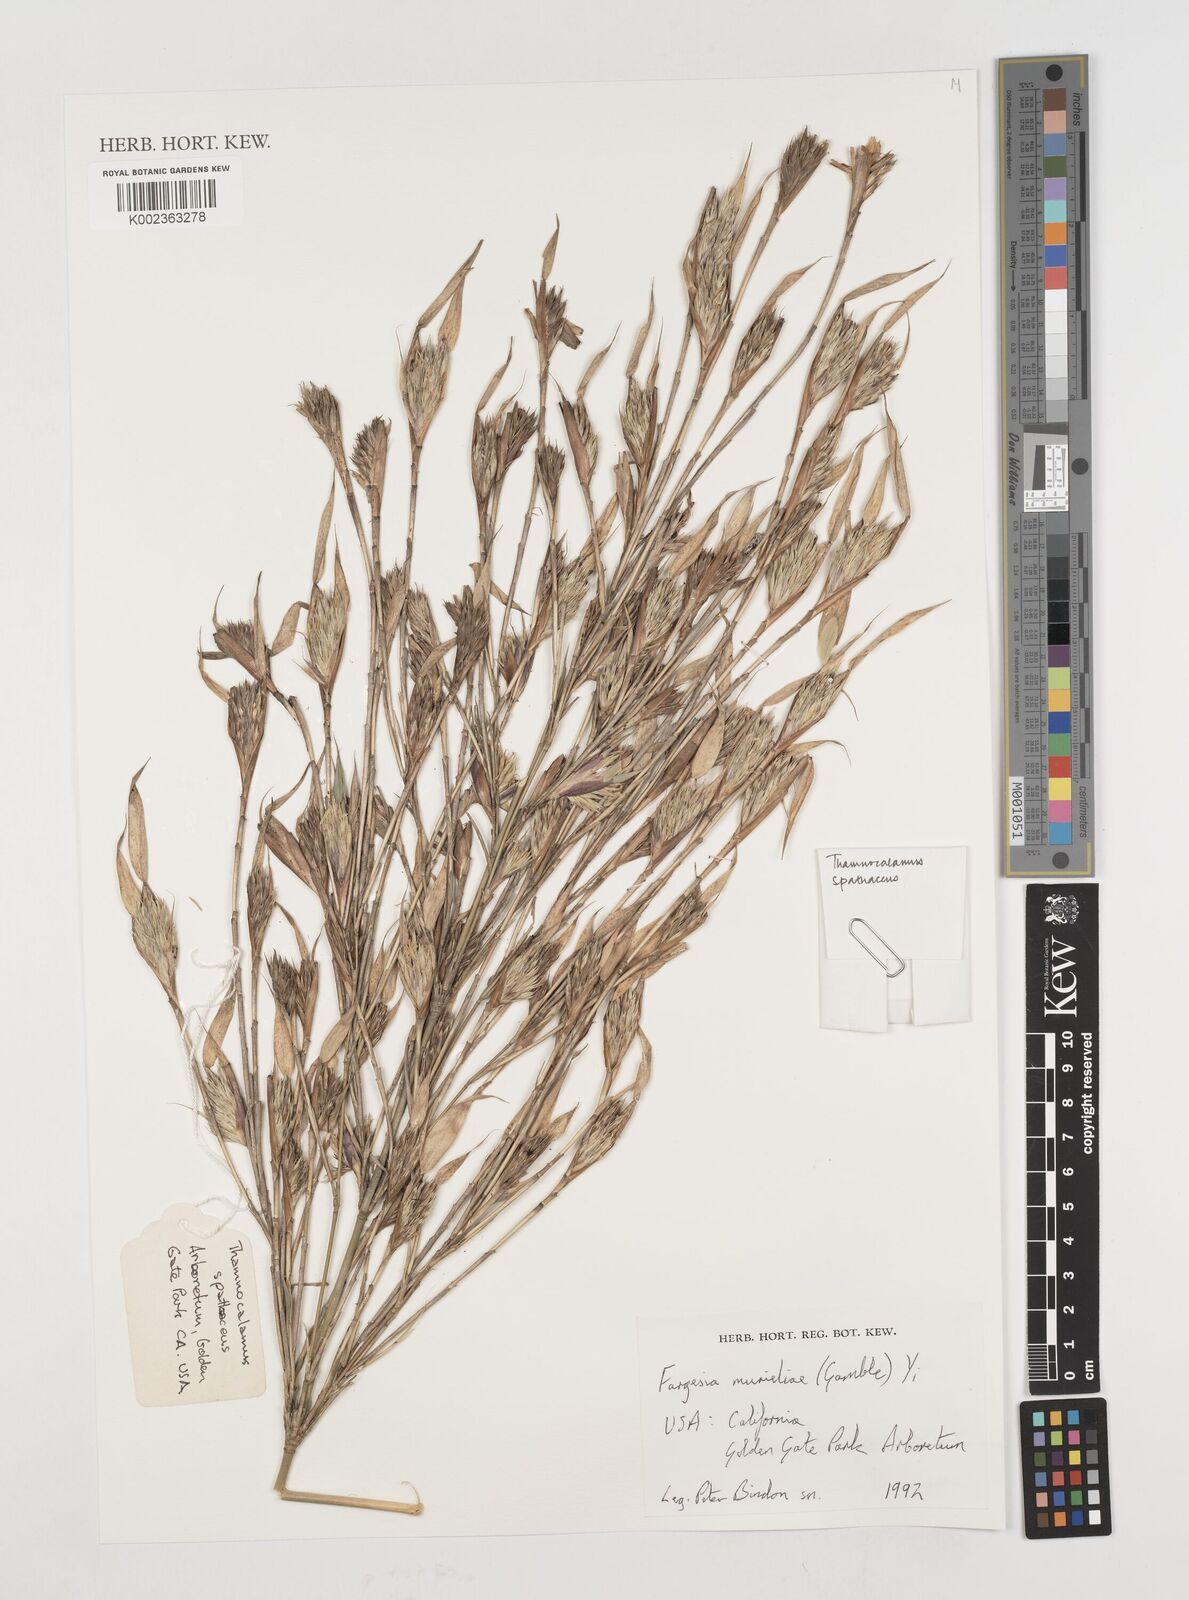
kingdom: Plantae
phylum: Tracheophyta
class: Liliopsida
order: Poales
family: Poaceae
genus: Fargesia
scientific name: Fargesia murielae
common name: Umbrella bamboo
